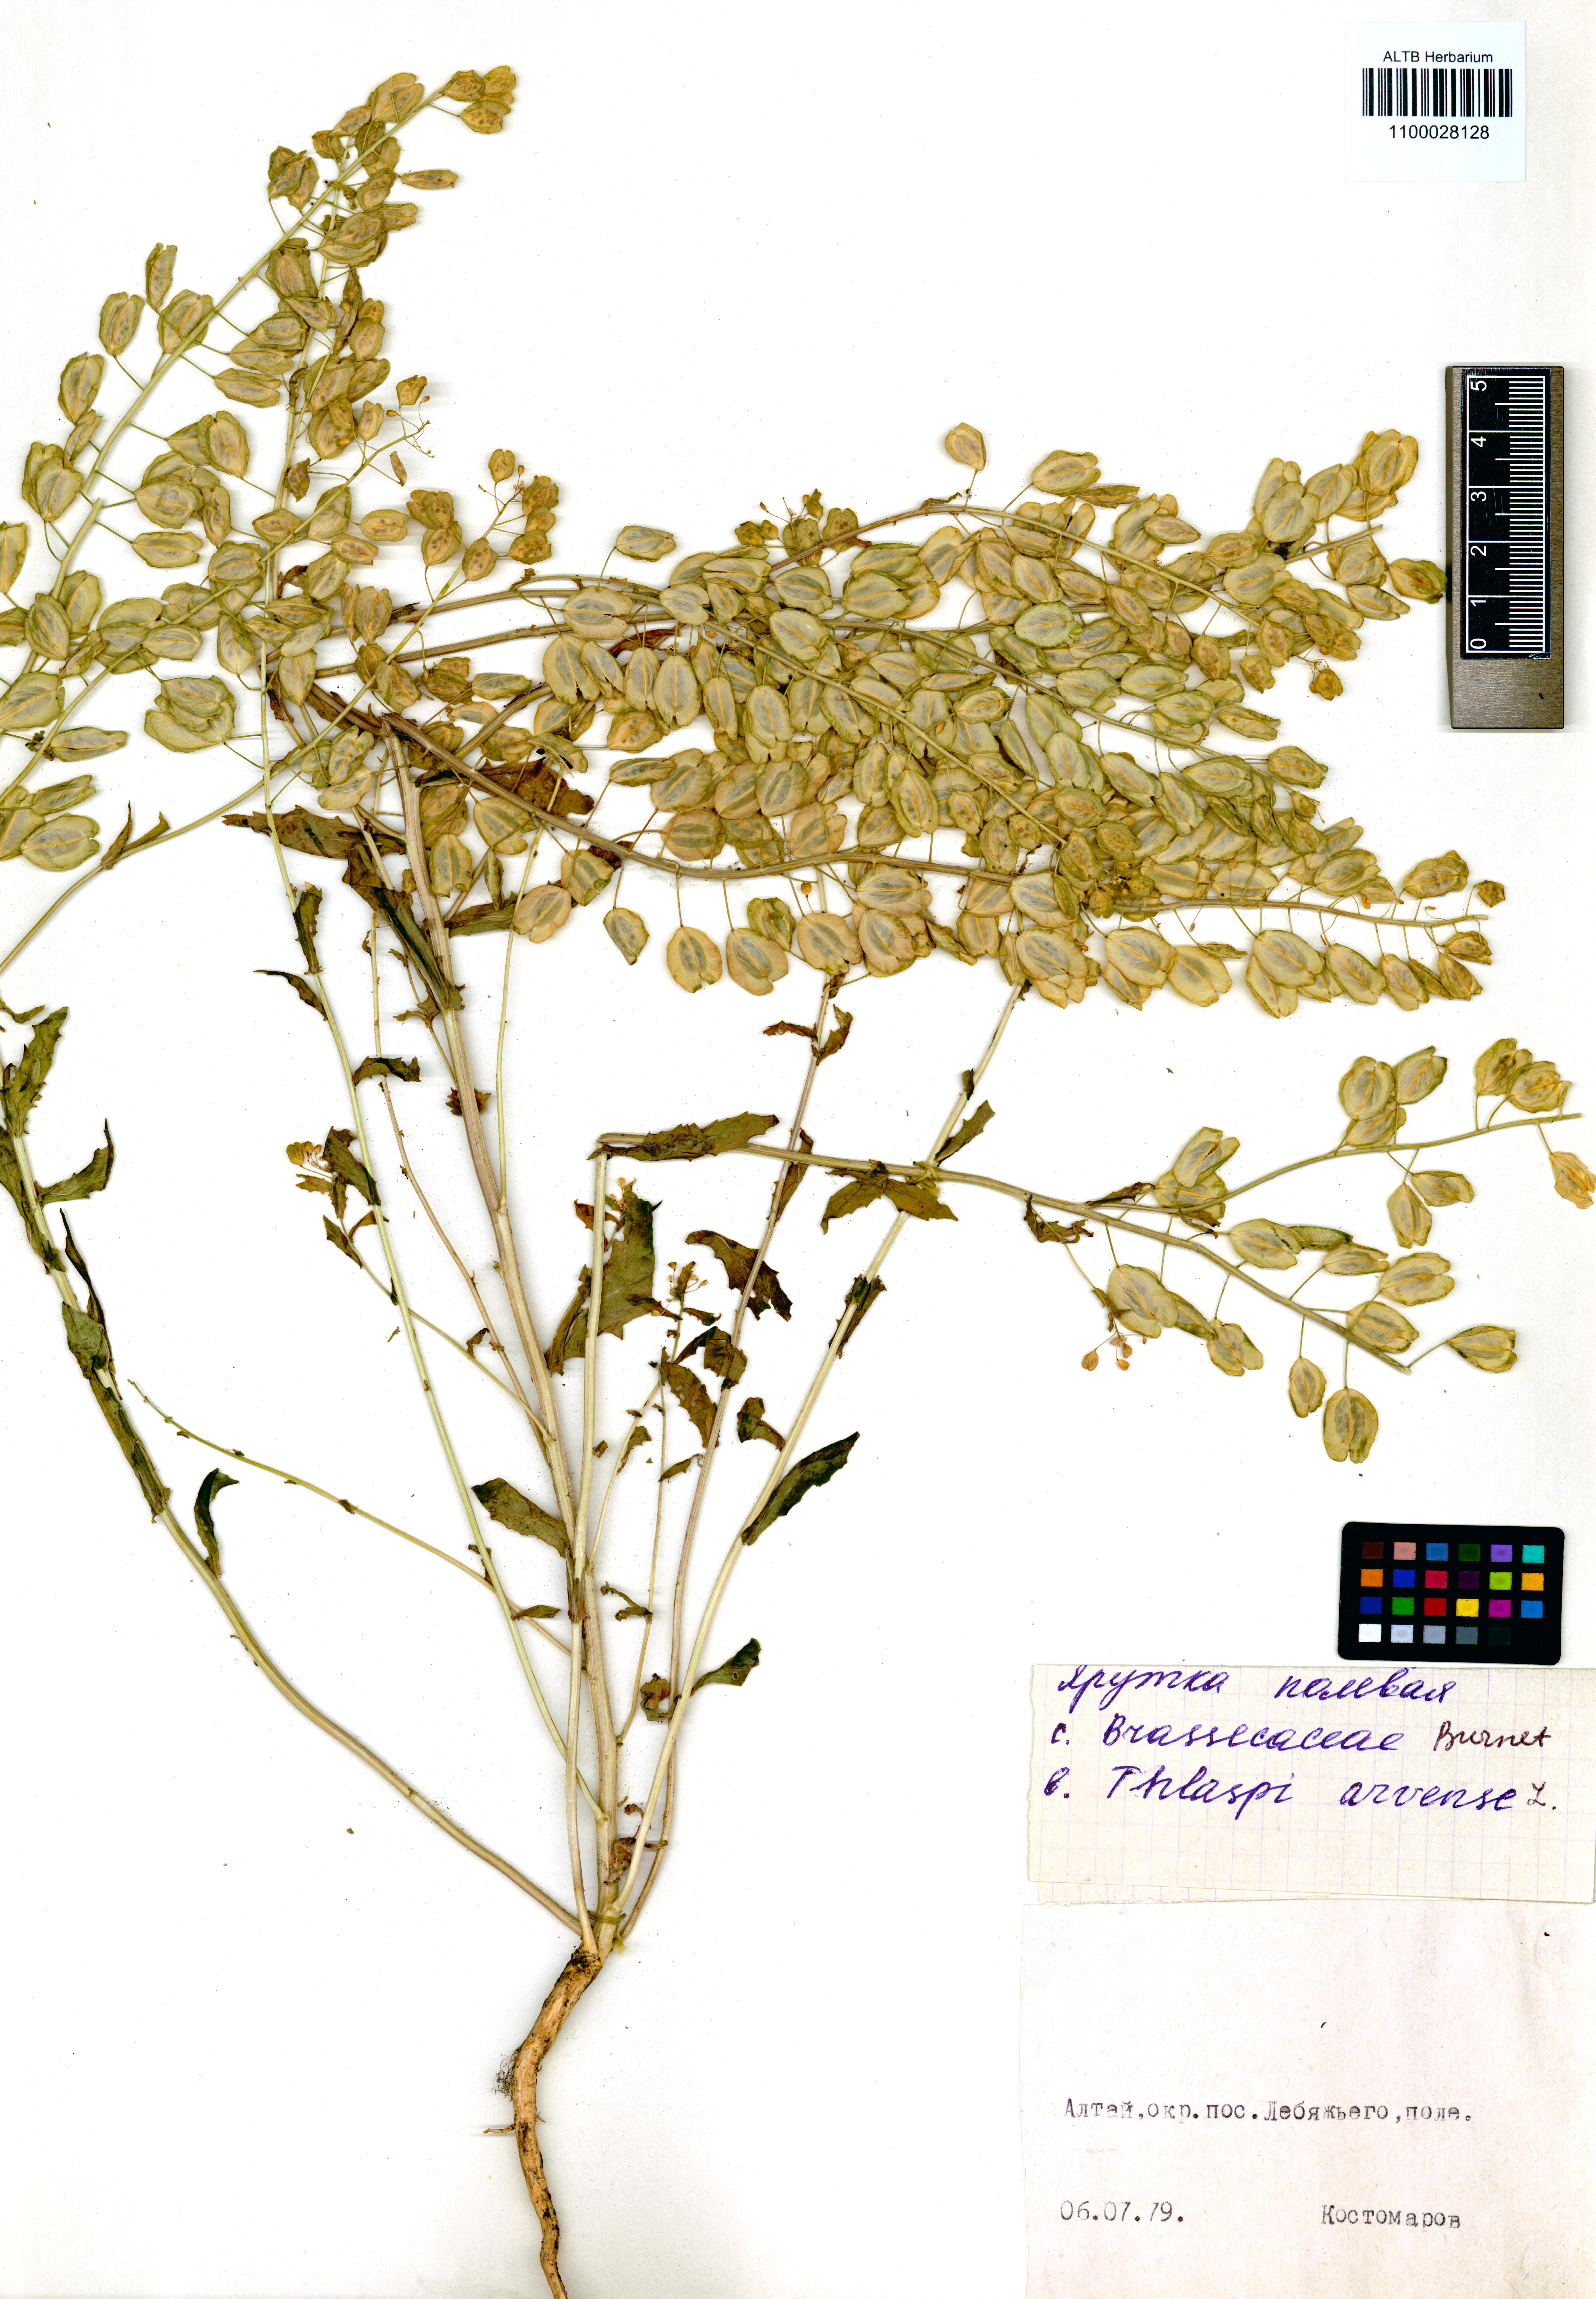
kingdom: Plantae
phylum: Tracheophyta
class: Magnoliopsida
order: Brassicales
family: Brassicaceae
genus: Thlaspi
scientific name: Thlaspi arvense
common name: Field pennycress
